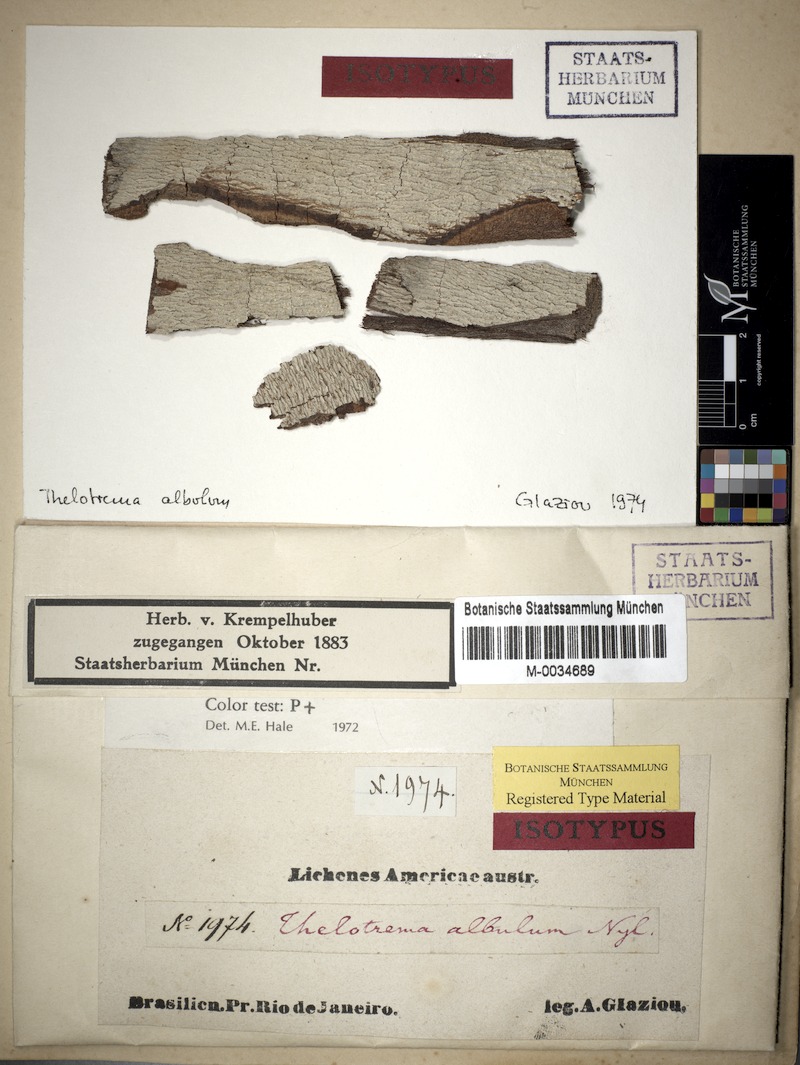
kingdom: Fungi
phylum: Ascomycota
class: Lecanoromycetes
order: Ostropales
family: Graphidaceae
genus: Ocellularia
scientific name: Ocellularia albula
